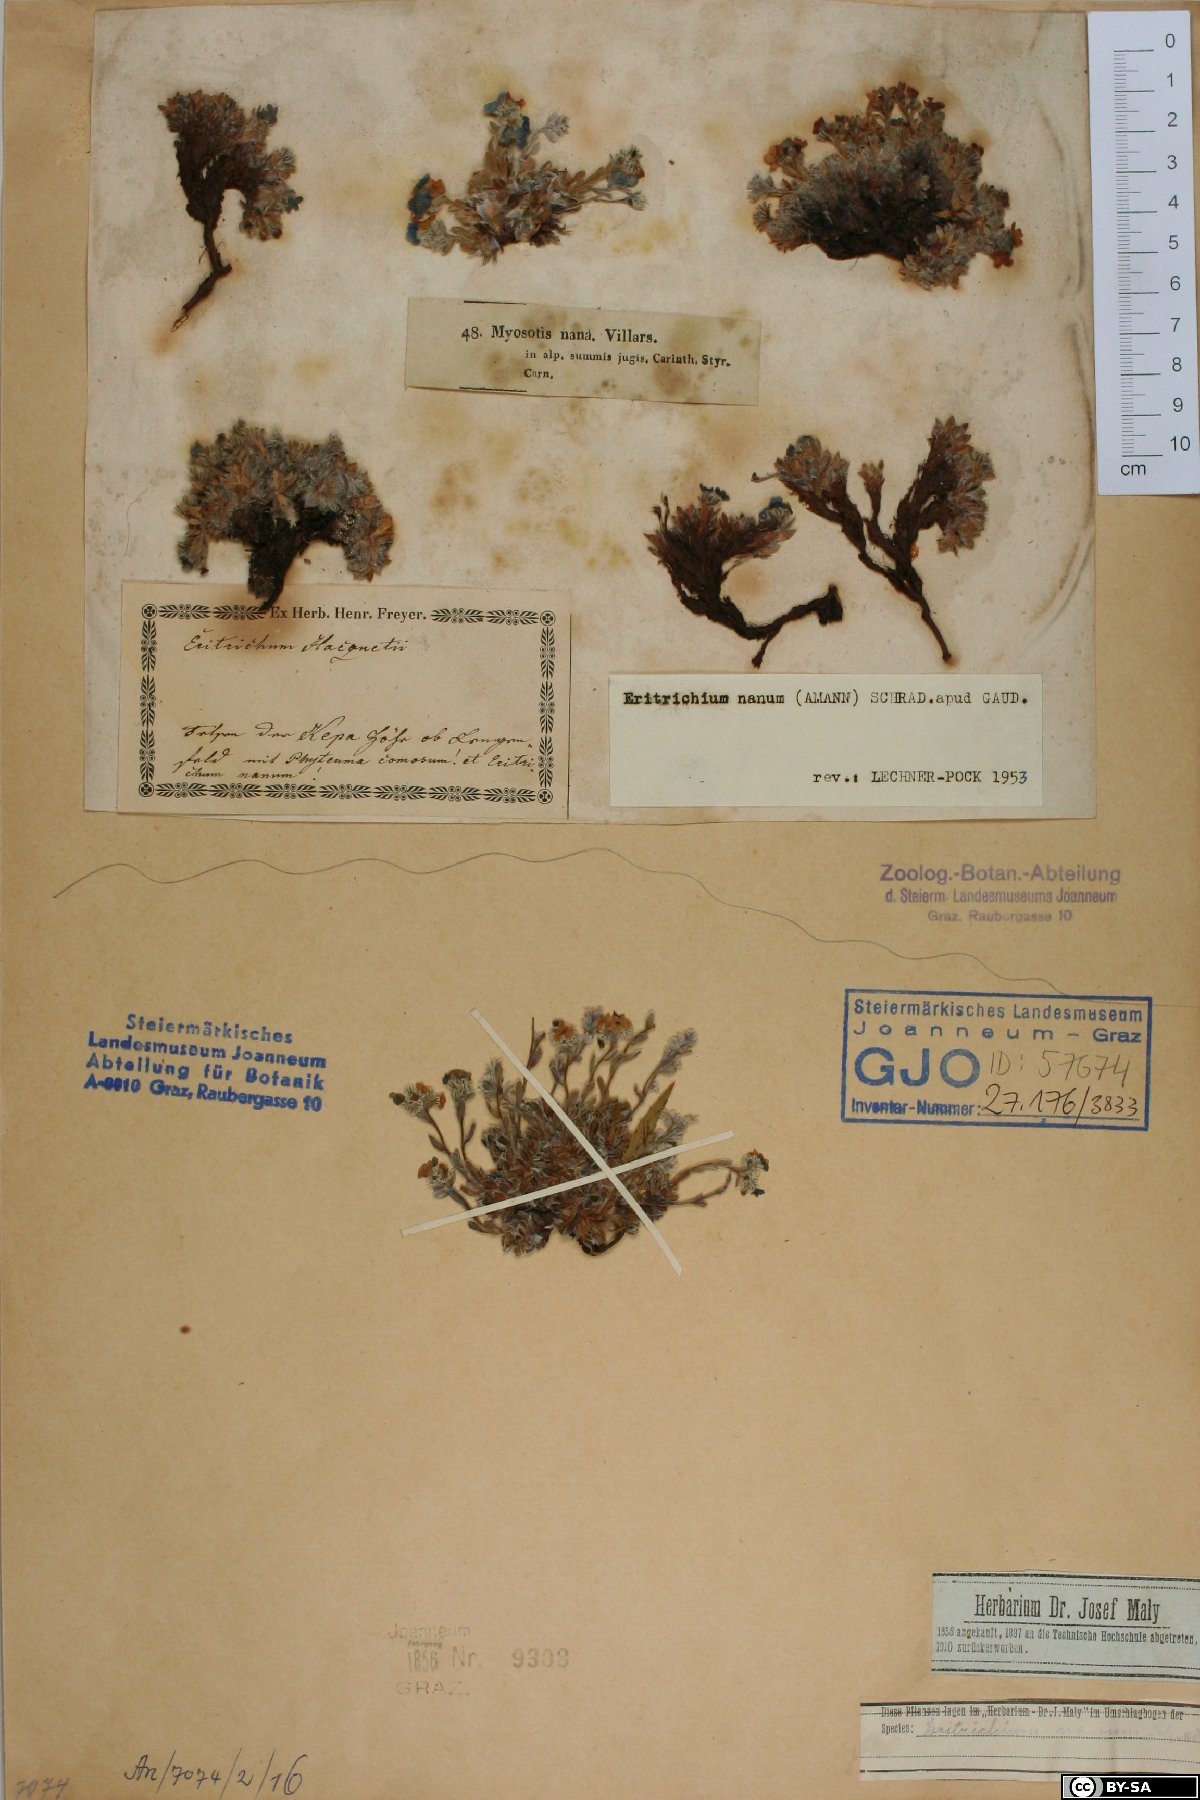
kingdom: Plantae
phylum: Tracheophyta
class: Magnoliopsida
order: Boraginales
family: Boraginaceae
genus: Eritrichium
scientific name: Eritrichium nanum
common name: King-of-the-alps
